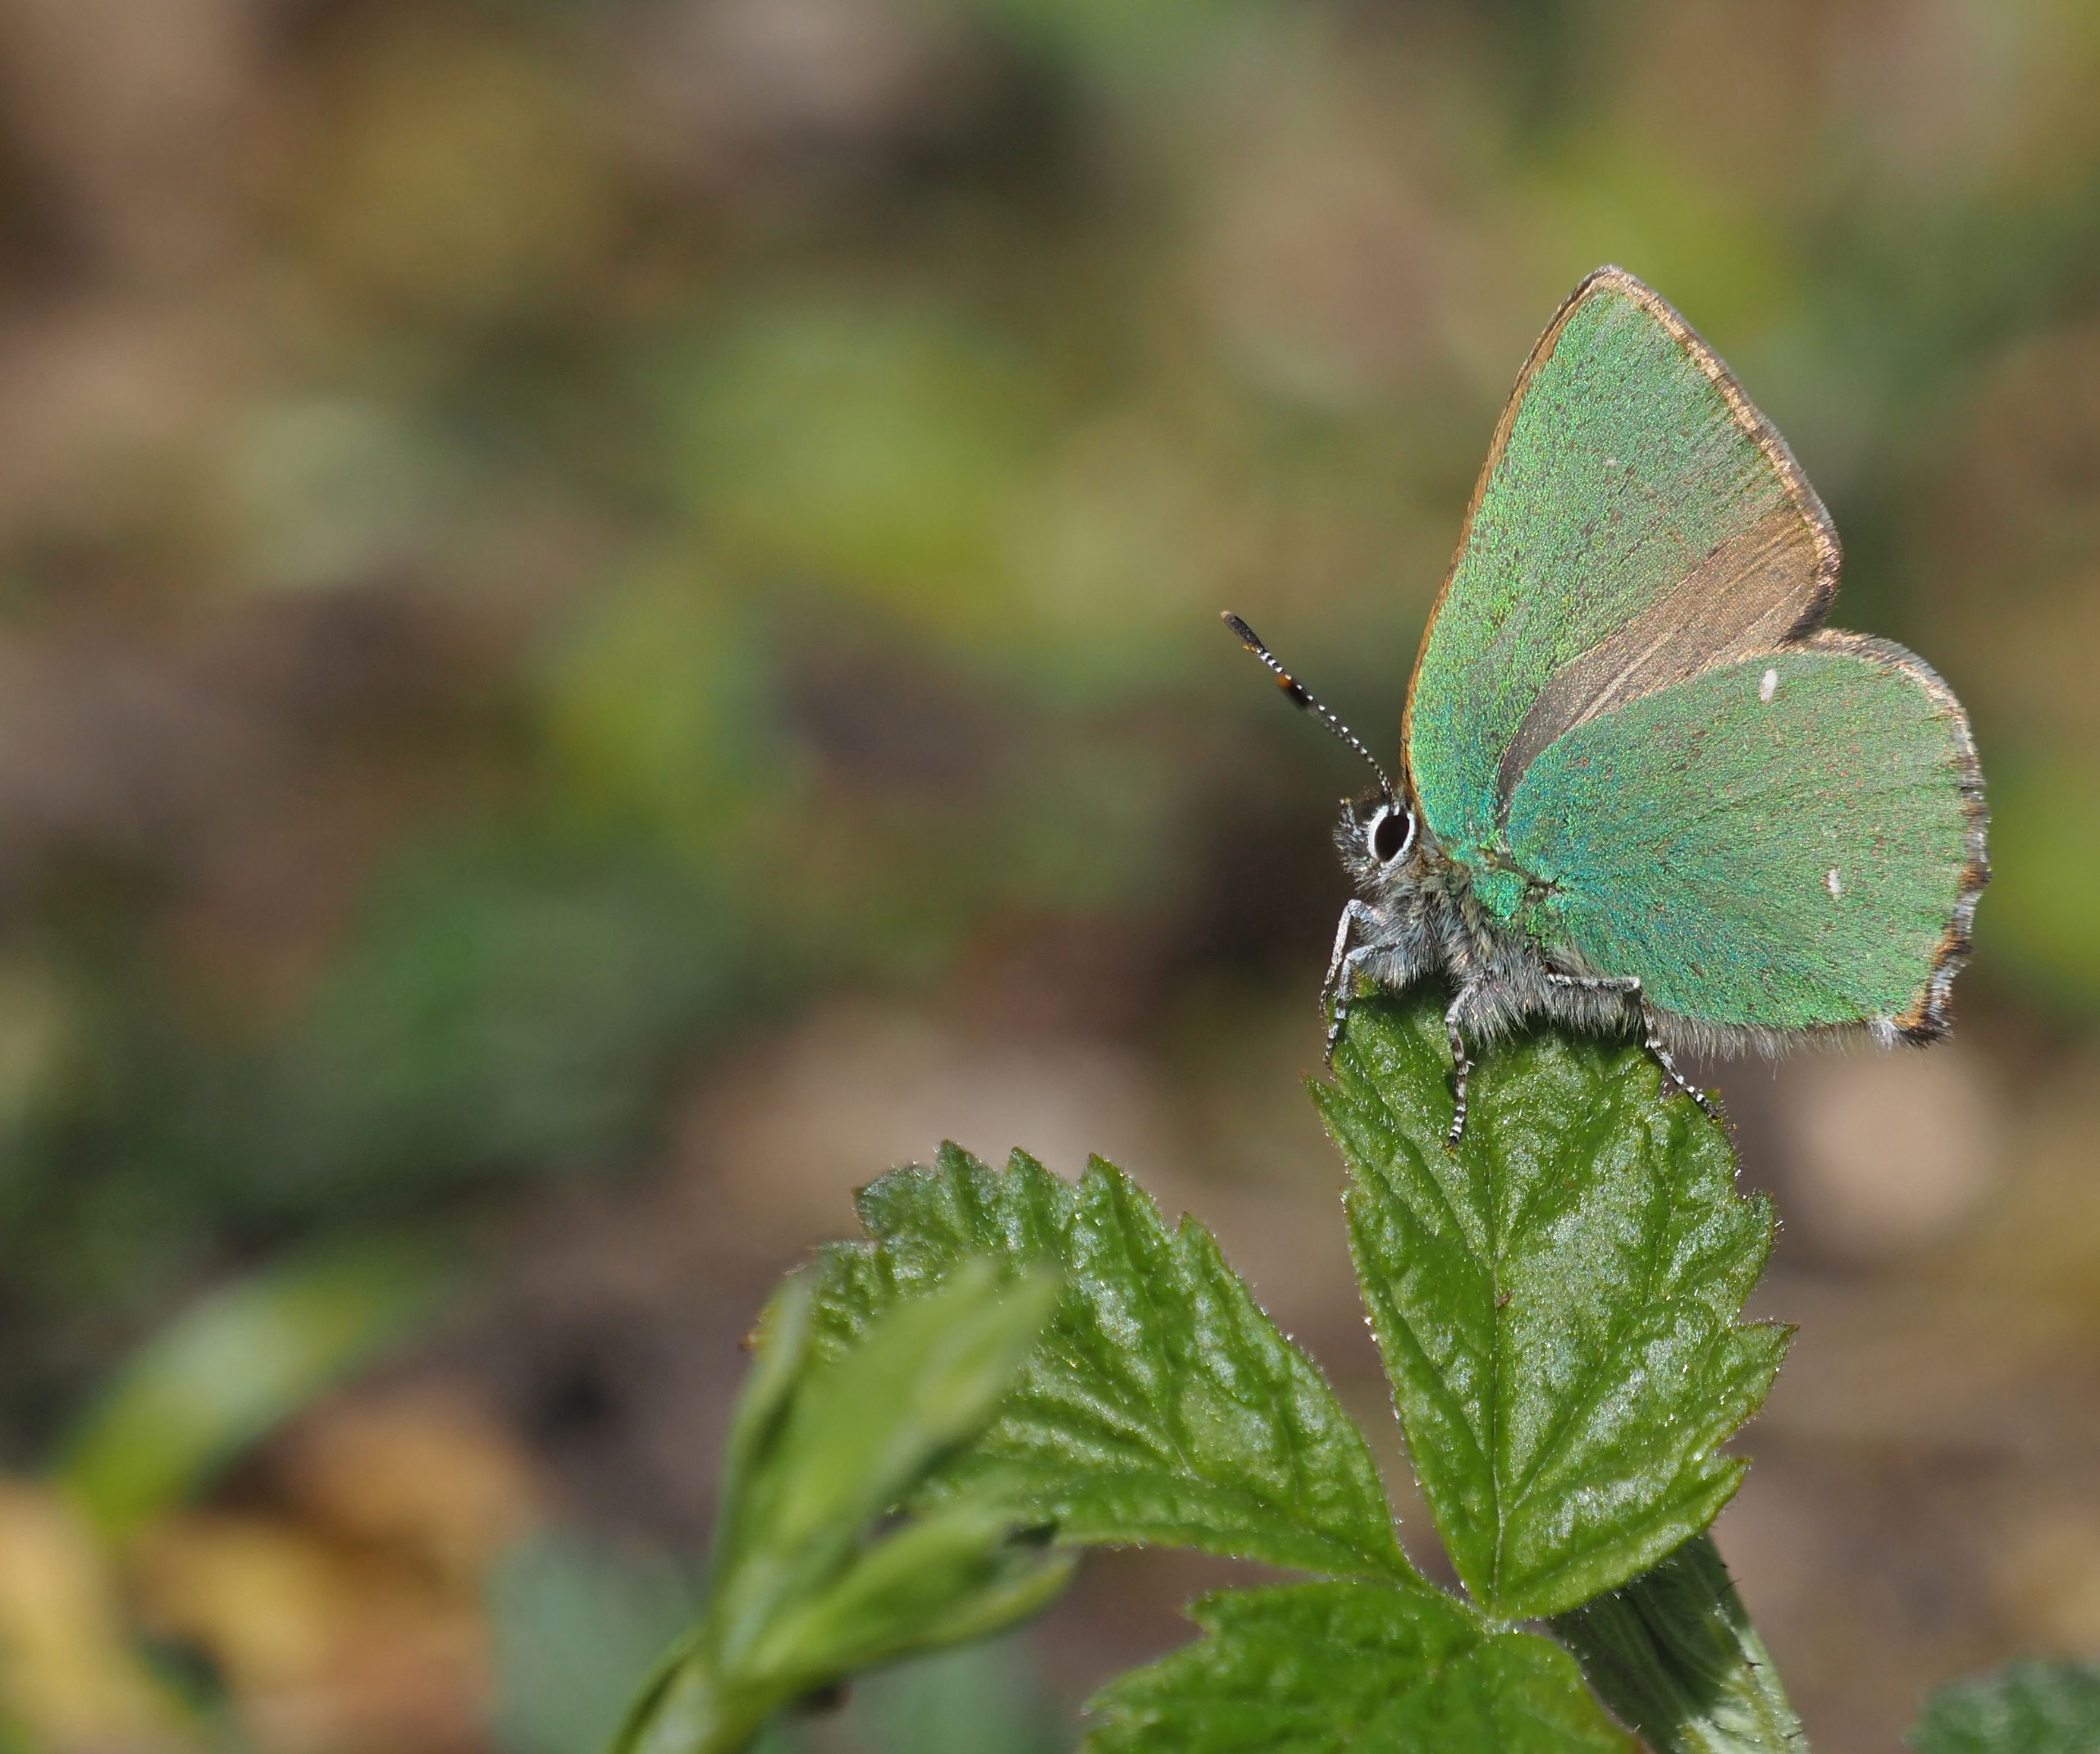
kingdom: Animalia
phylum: Arthropoda
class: Insecta
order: Lepidoptera
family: Lycaenidae
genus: Callophrys
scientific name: Callophrys rubi
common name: Grøn busksommerfugl
